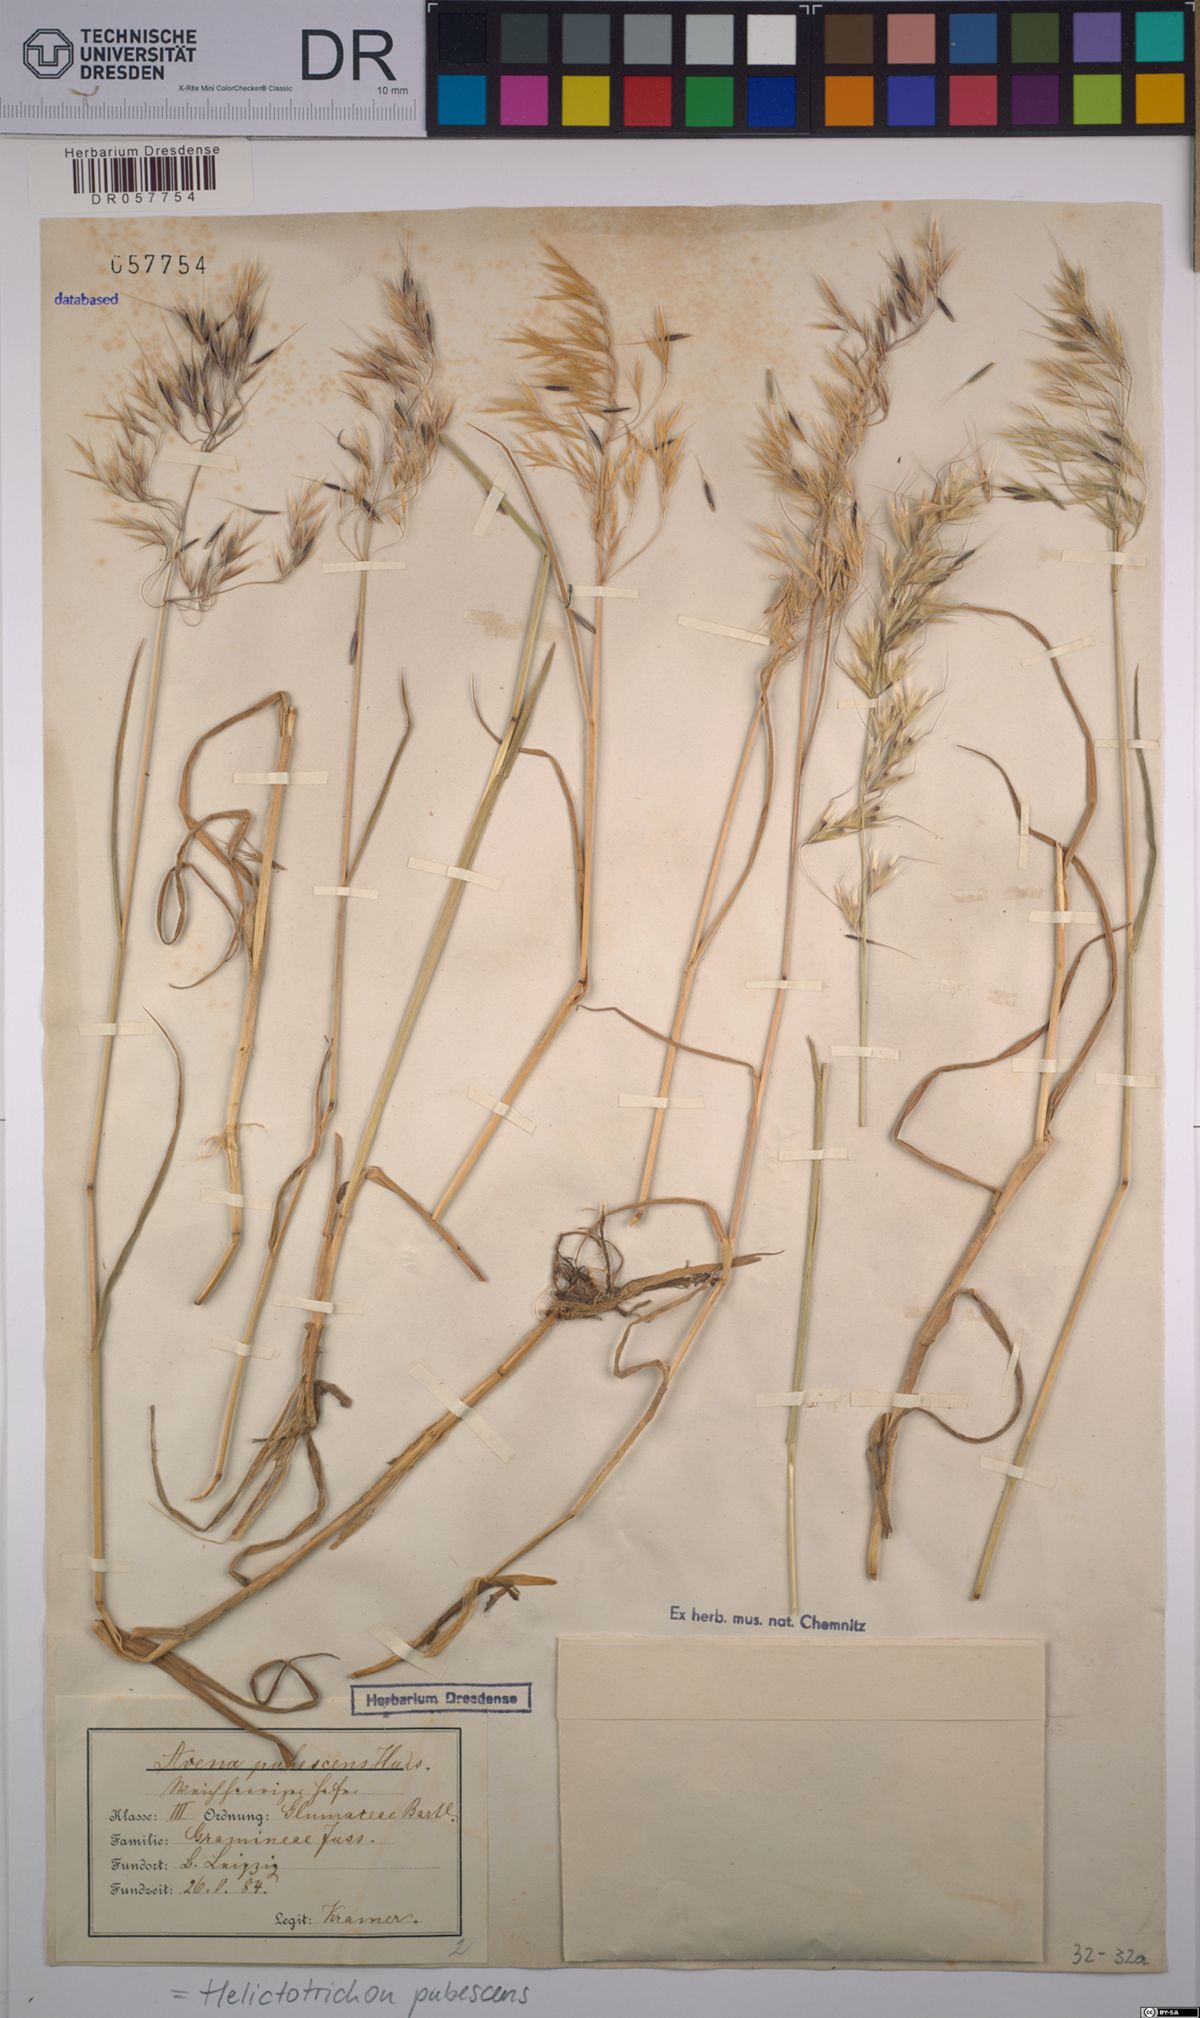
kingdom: Plantae
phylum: Tracheophyta
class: Liliopsida
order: Poales
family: Poaceae
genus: Avenula
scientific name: Avenula pubescens
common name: Downy alpine oatgrass
